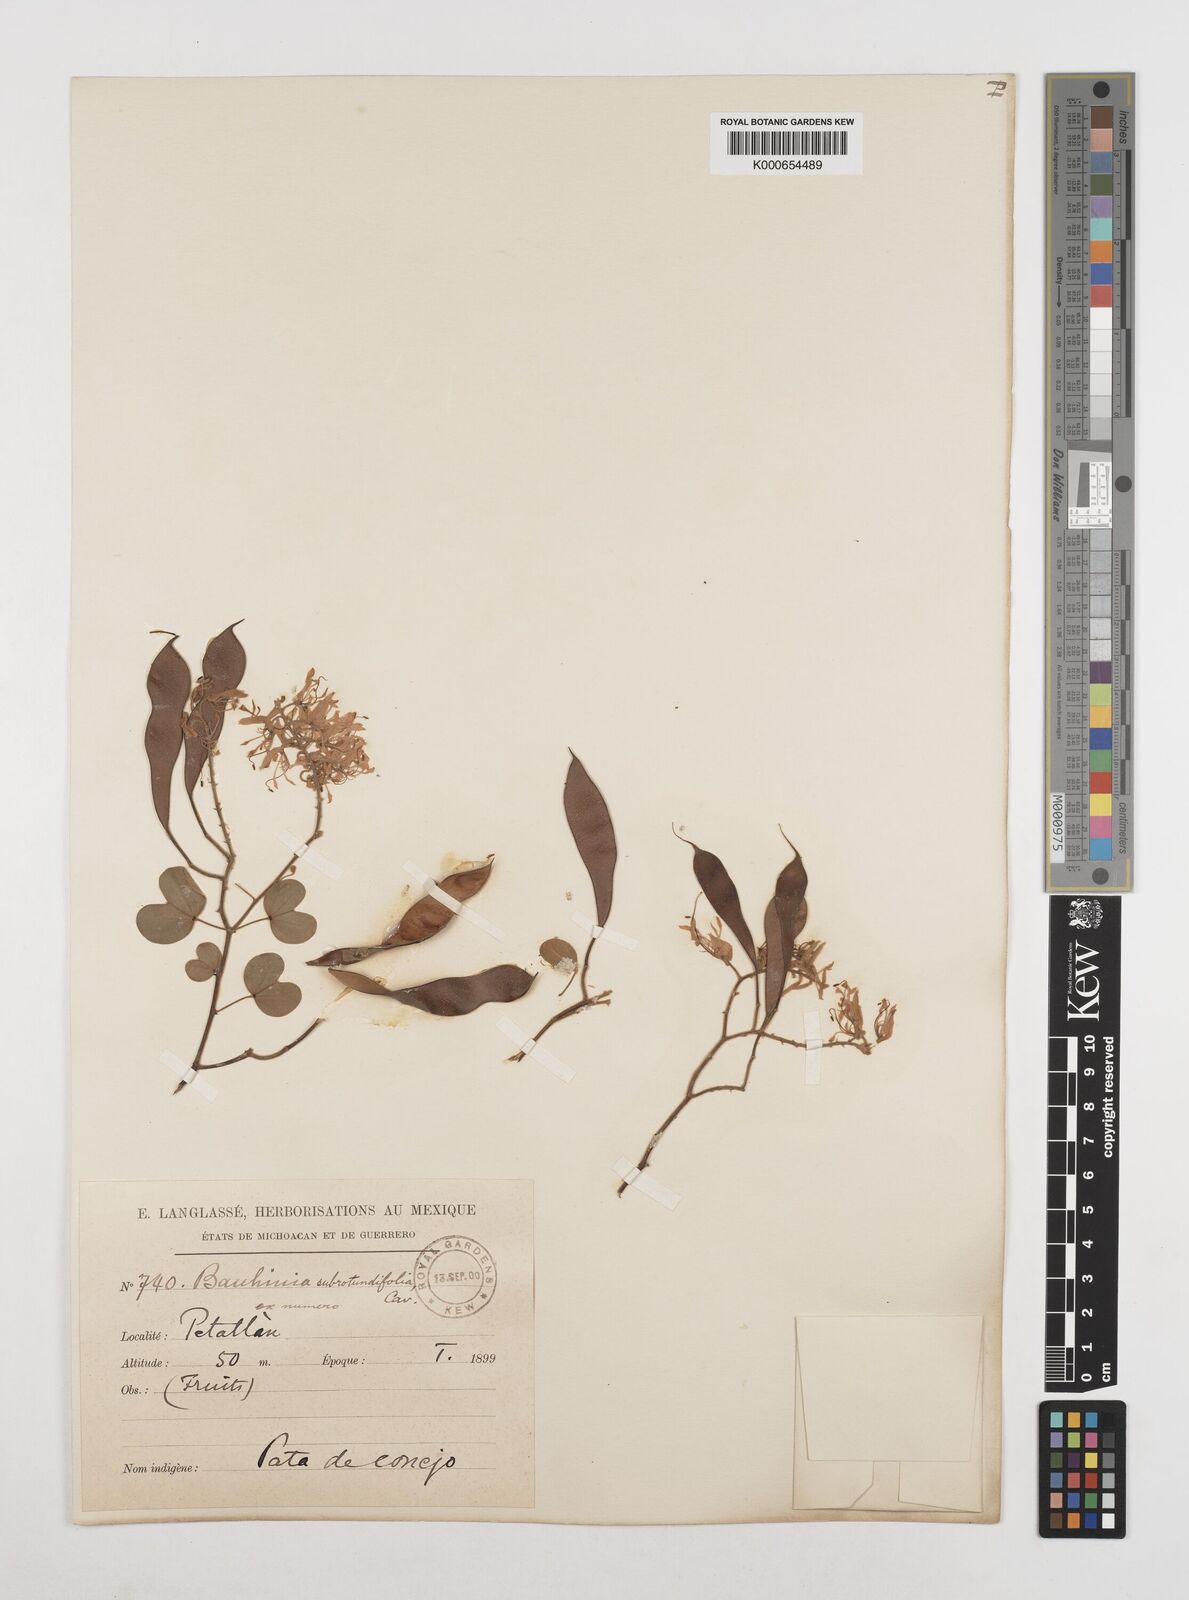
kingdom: Plantae
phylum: Tracheophyta
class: Magnoliopsida
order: Fabales
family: Fabaceae
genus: Bauhinia
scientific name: Bauhinia subrotundifolia
